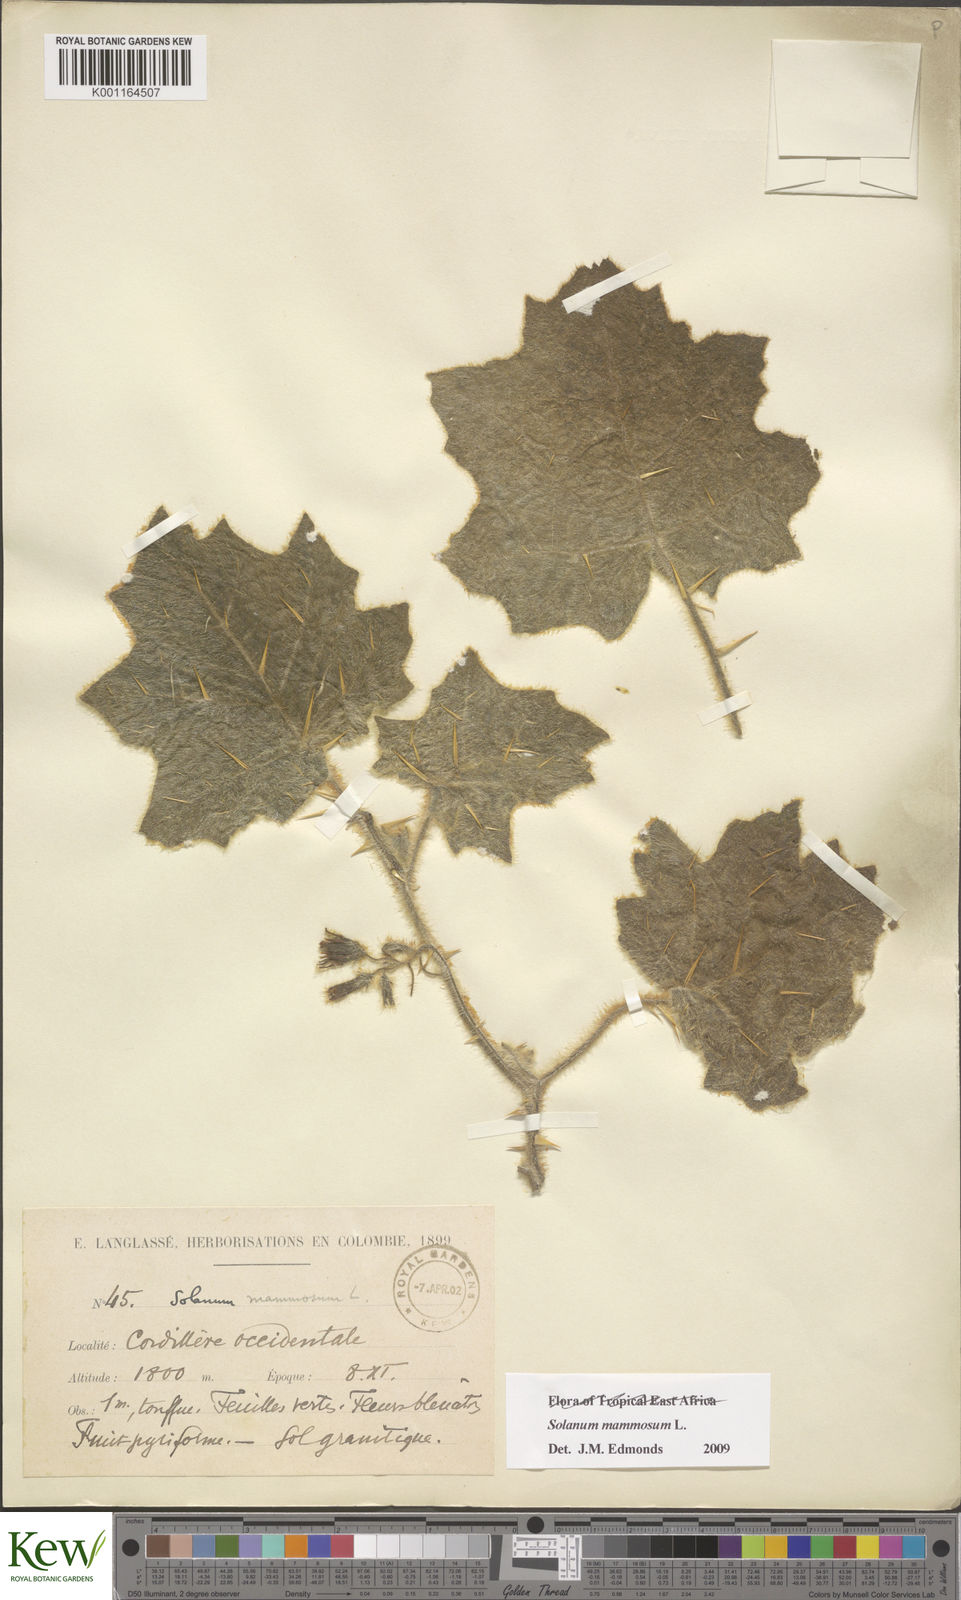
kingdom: Plantae
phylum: Tracheophyta
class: Magnoliopsida
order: Solanales
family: Solanaceae
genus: Solanum
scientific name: Solanum mammosum
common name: Nipple fruit
